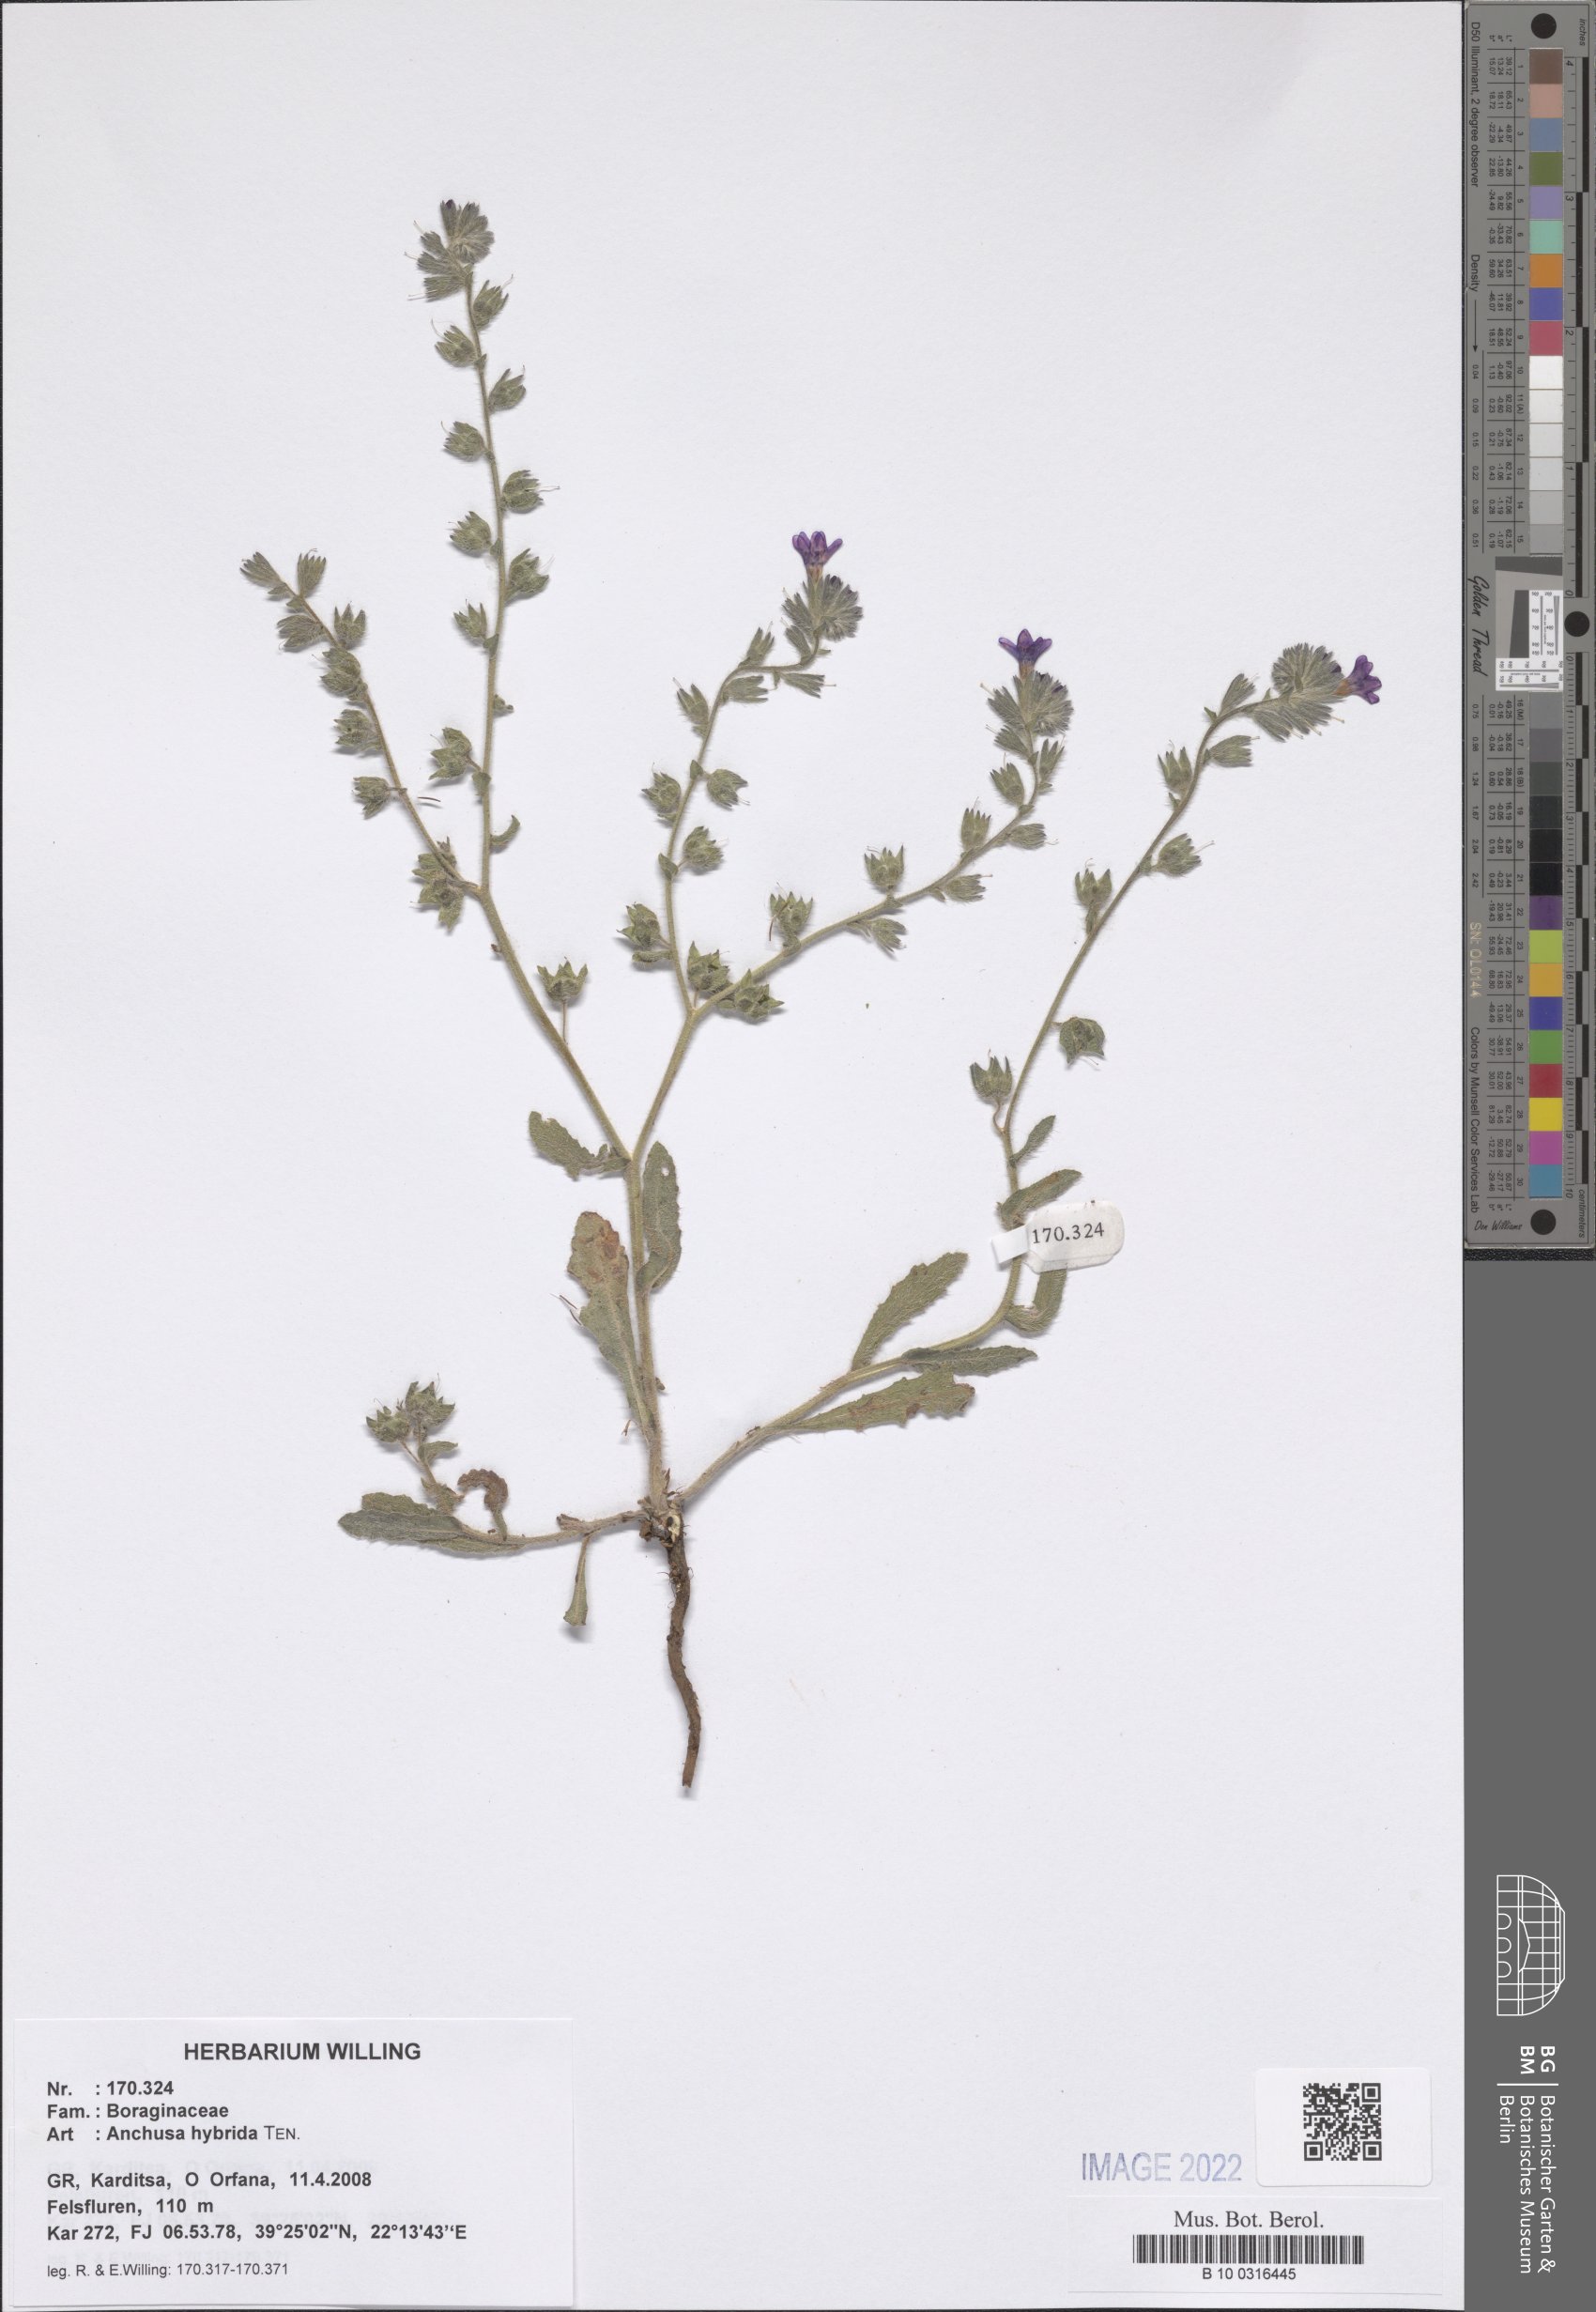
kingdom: Plantae
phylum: Tracheophyta
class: Magnoliopsida
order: Boraginales
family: Boraginaceae
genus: Anchusa
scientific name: Anchusa hybrida
